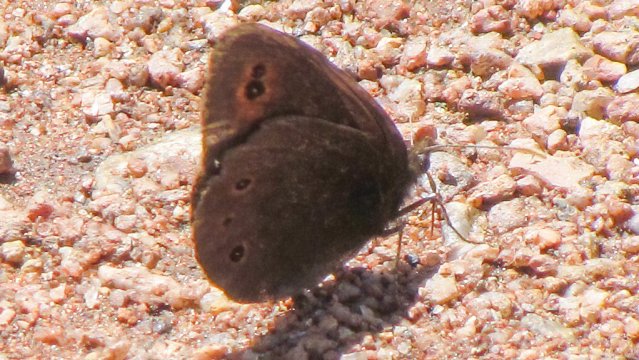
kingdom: Animalia
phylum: Arthropoda
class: Insecta
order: Lepidoptera
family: Nymphalidae
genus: Erebia
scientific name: Erebia epipsodea
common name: Common Alpine
